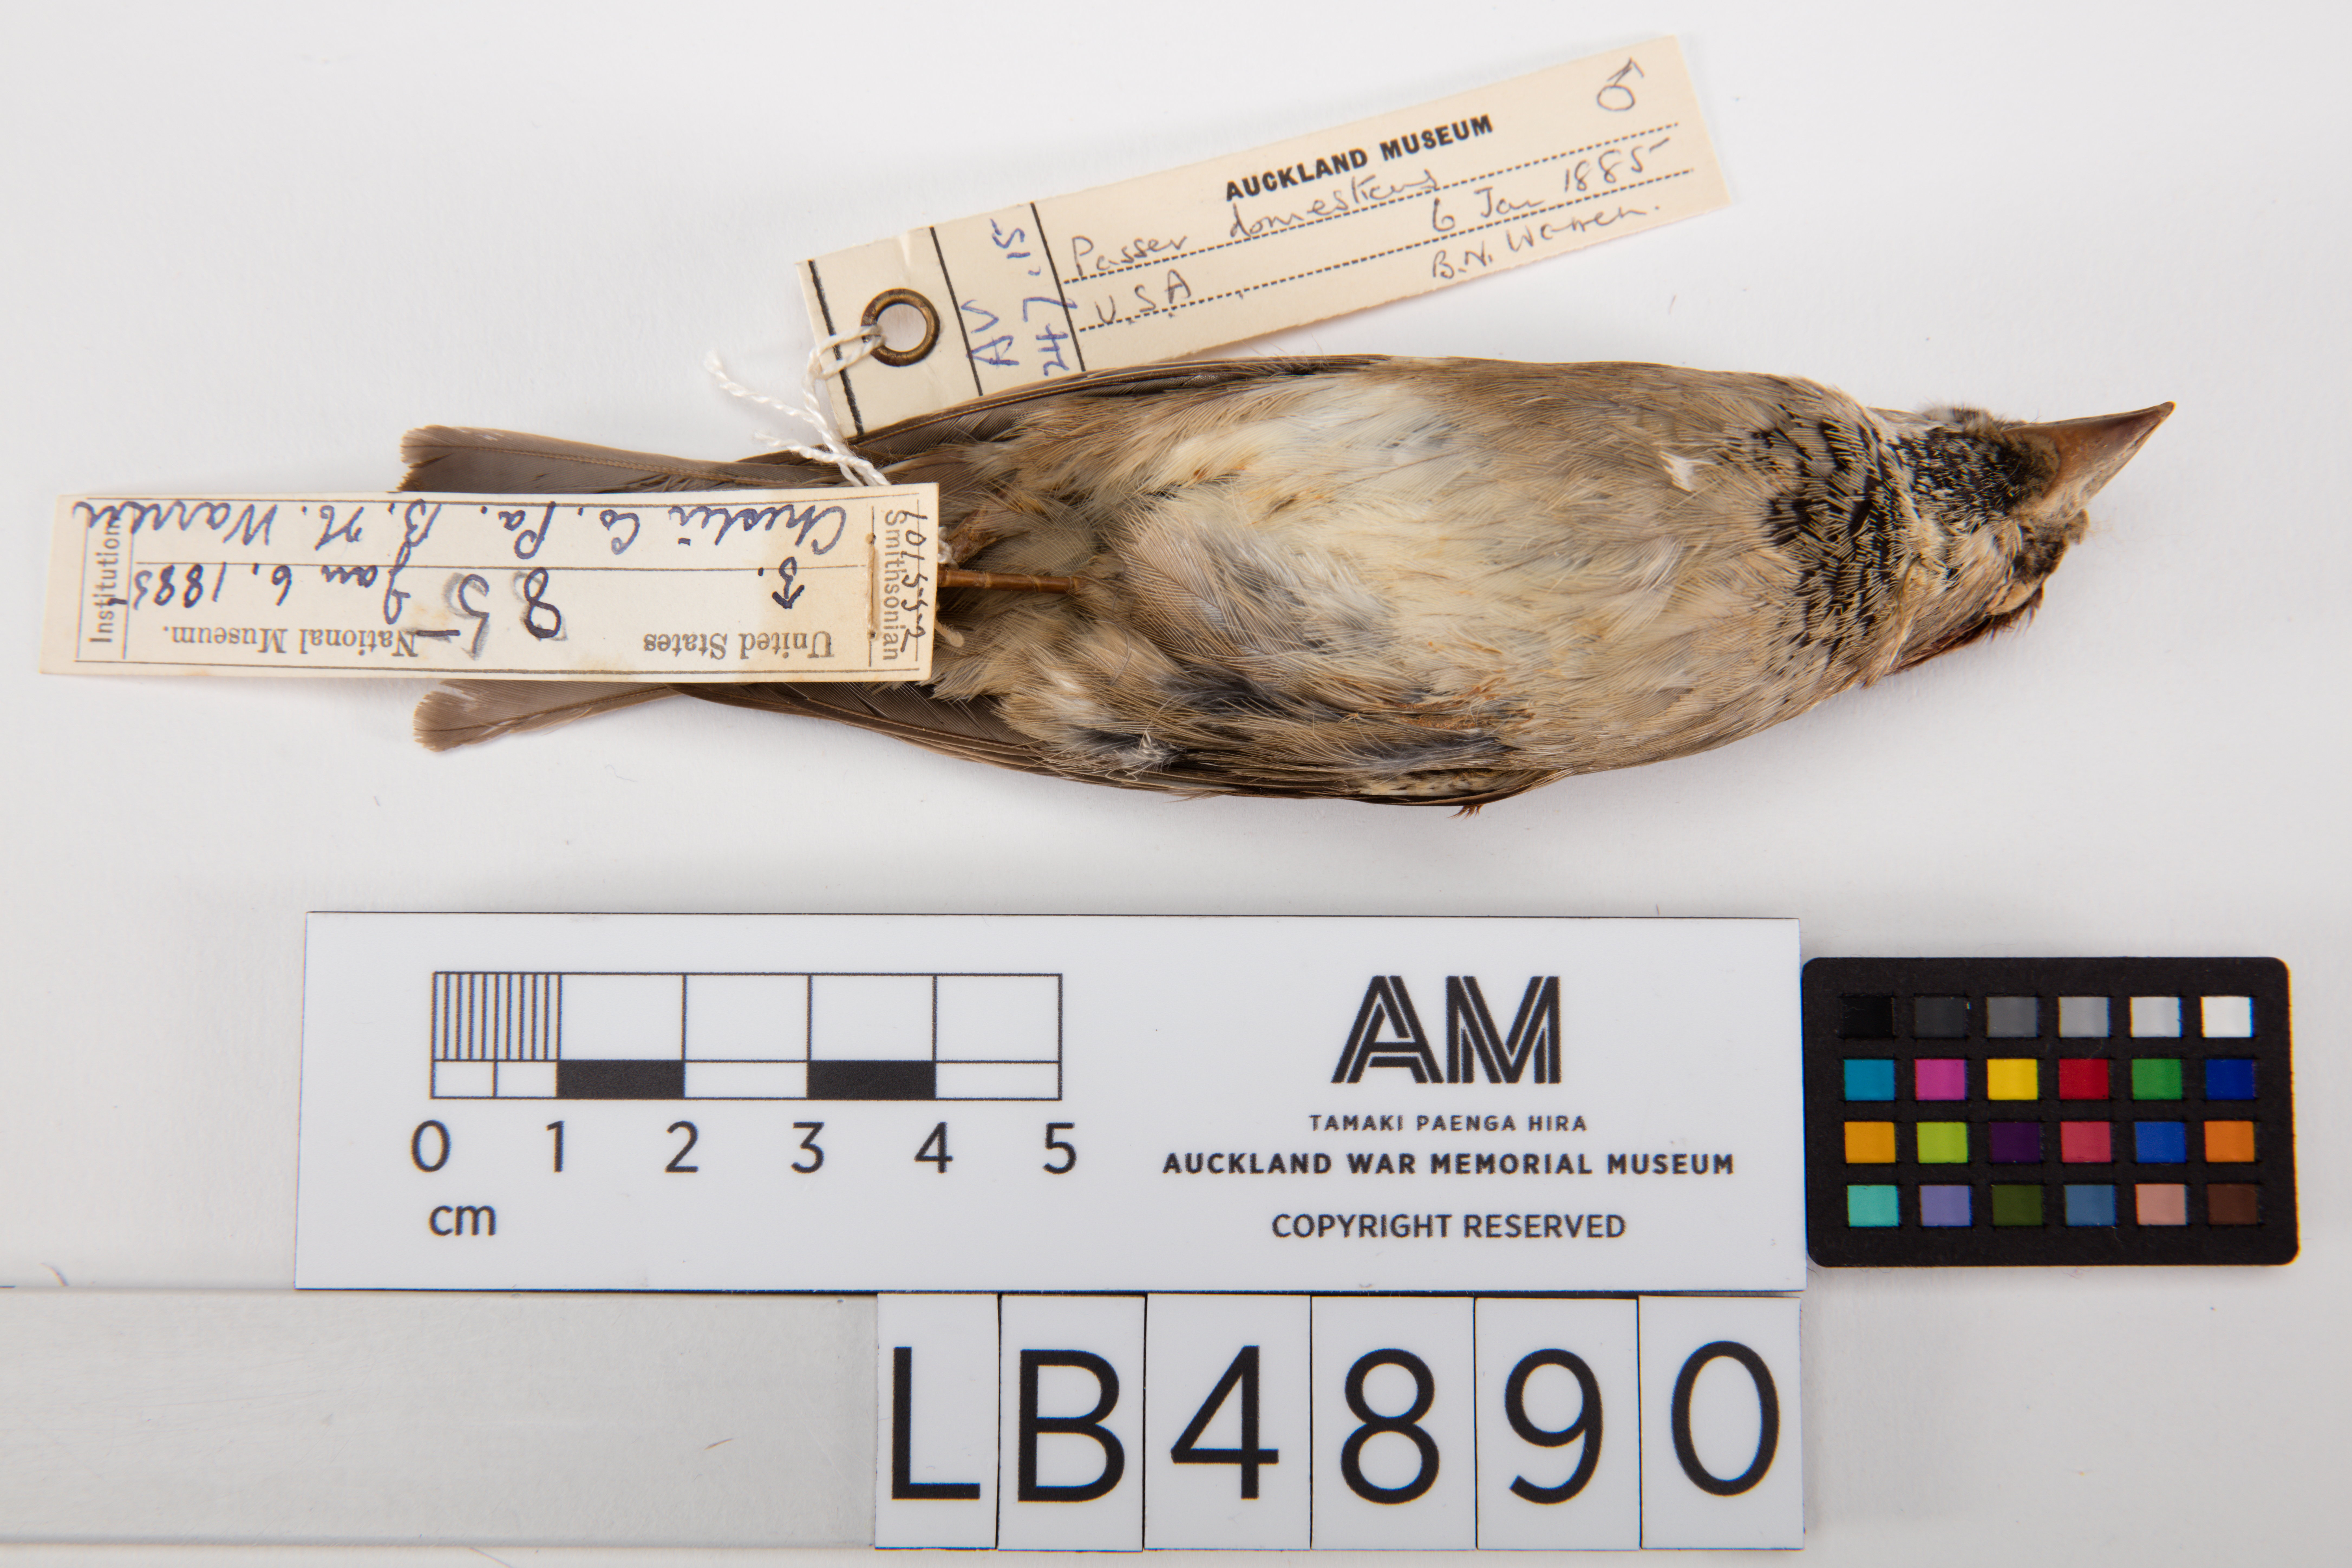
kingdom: Animalia
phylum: Chordata
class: Aves
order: Passeriformes
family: Passeridae
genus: Passer
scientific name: Passer domesticus
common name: House sparrow
